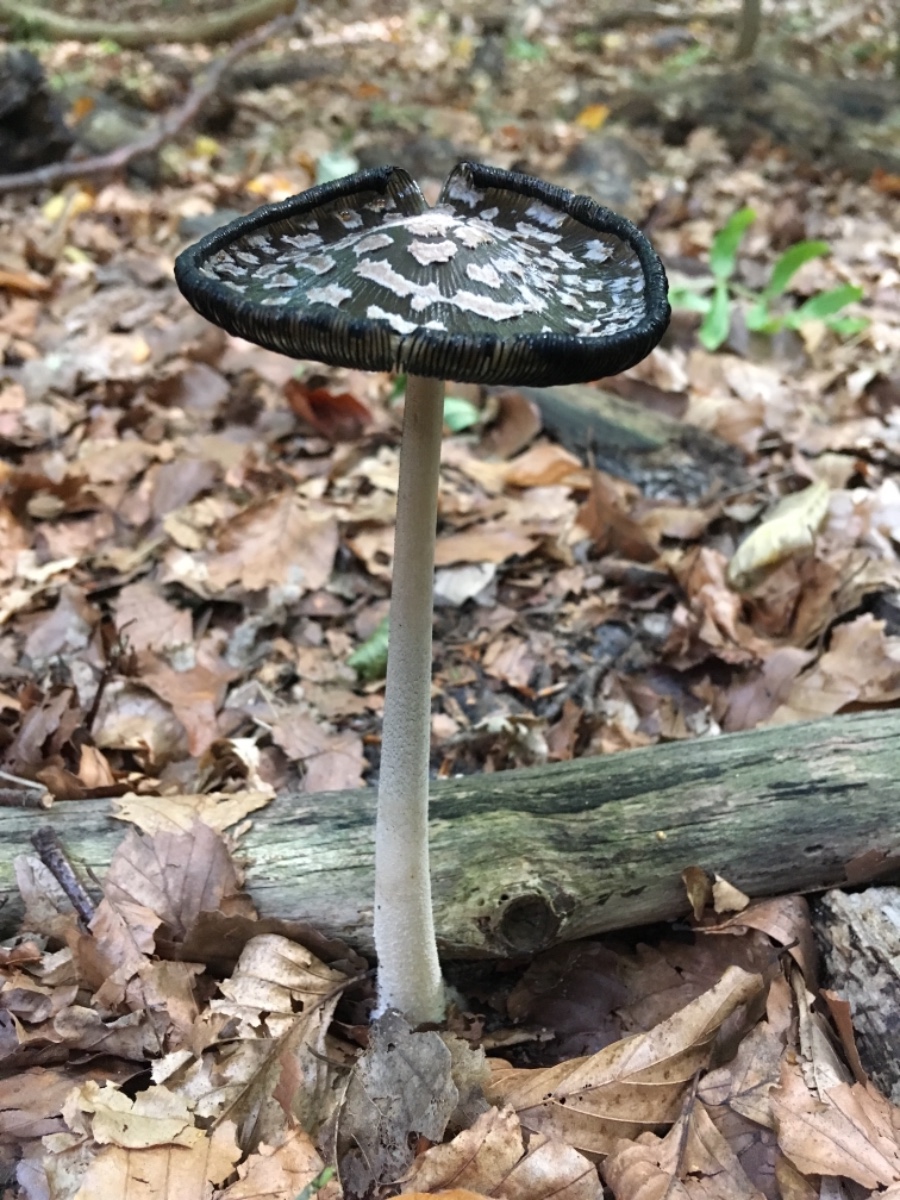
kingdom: Fungi
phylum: Basidiomycota
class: Agaricomycetes
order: Agaricales
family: Psathyrellaceae
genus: Coprinopsis
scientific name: Coprinopsis picacea
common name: skade-blækhat
